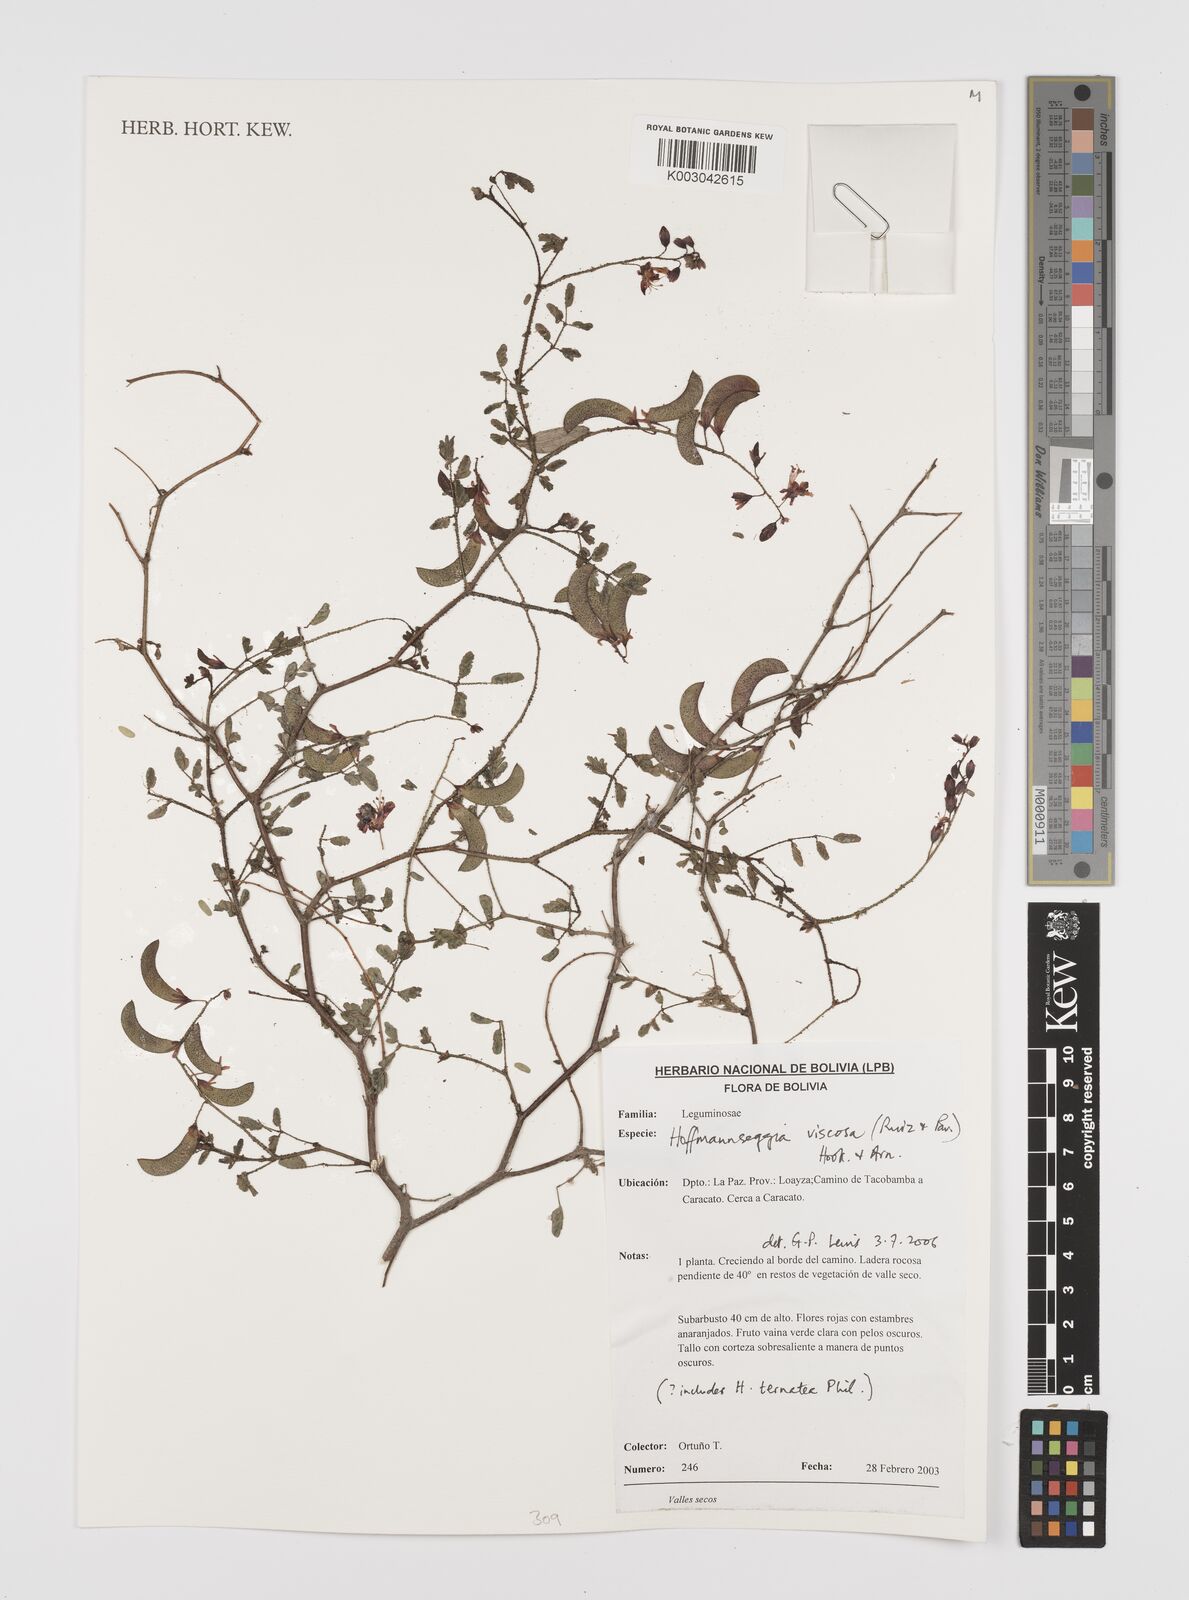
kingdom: Plantae
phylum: Tracheophyta
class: Magnoliopsida
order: Fabales
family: Fabaceae
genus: Hoffmannseggia
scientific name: Hoffmannseggia viscosa
